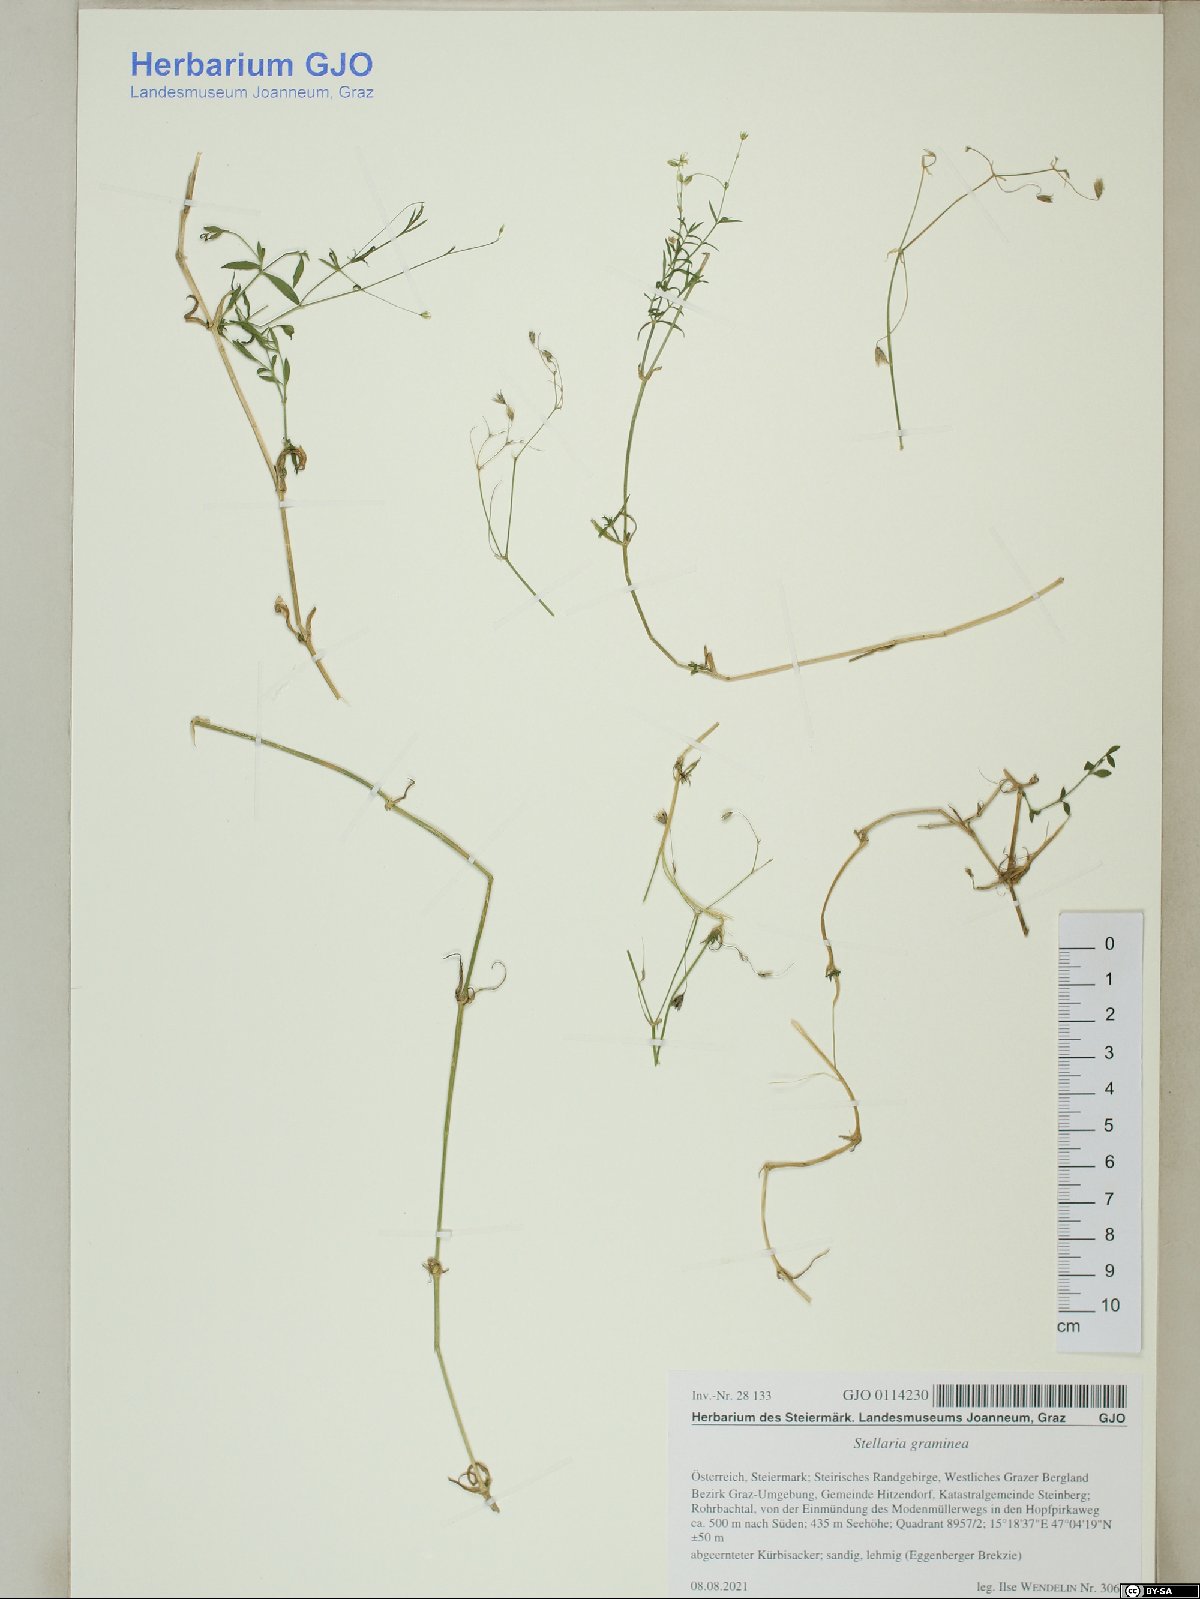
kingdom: Plantae
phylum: Tracheophyta
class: Magnoliopsida
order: Caryophyllales
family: Caryophyllaceae
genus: Stellaria
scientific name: Stellaria graminea
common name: Grass-like starwort
